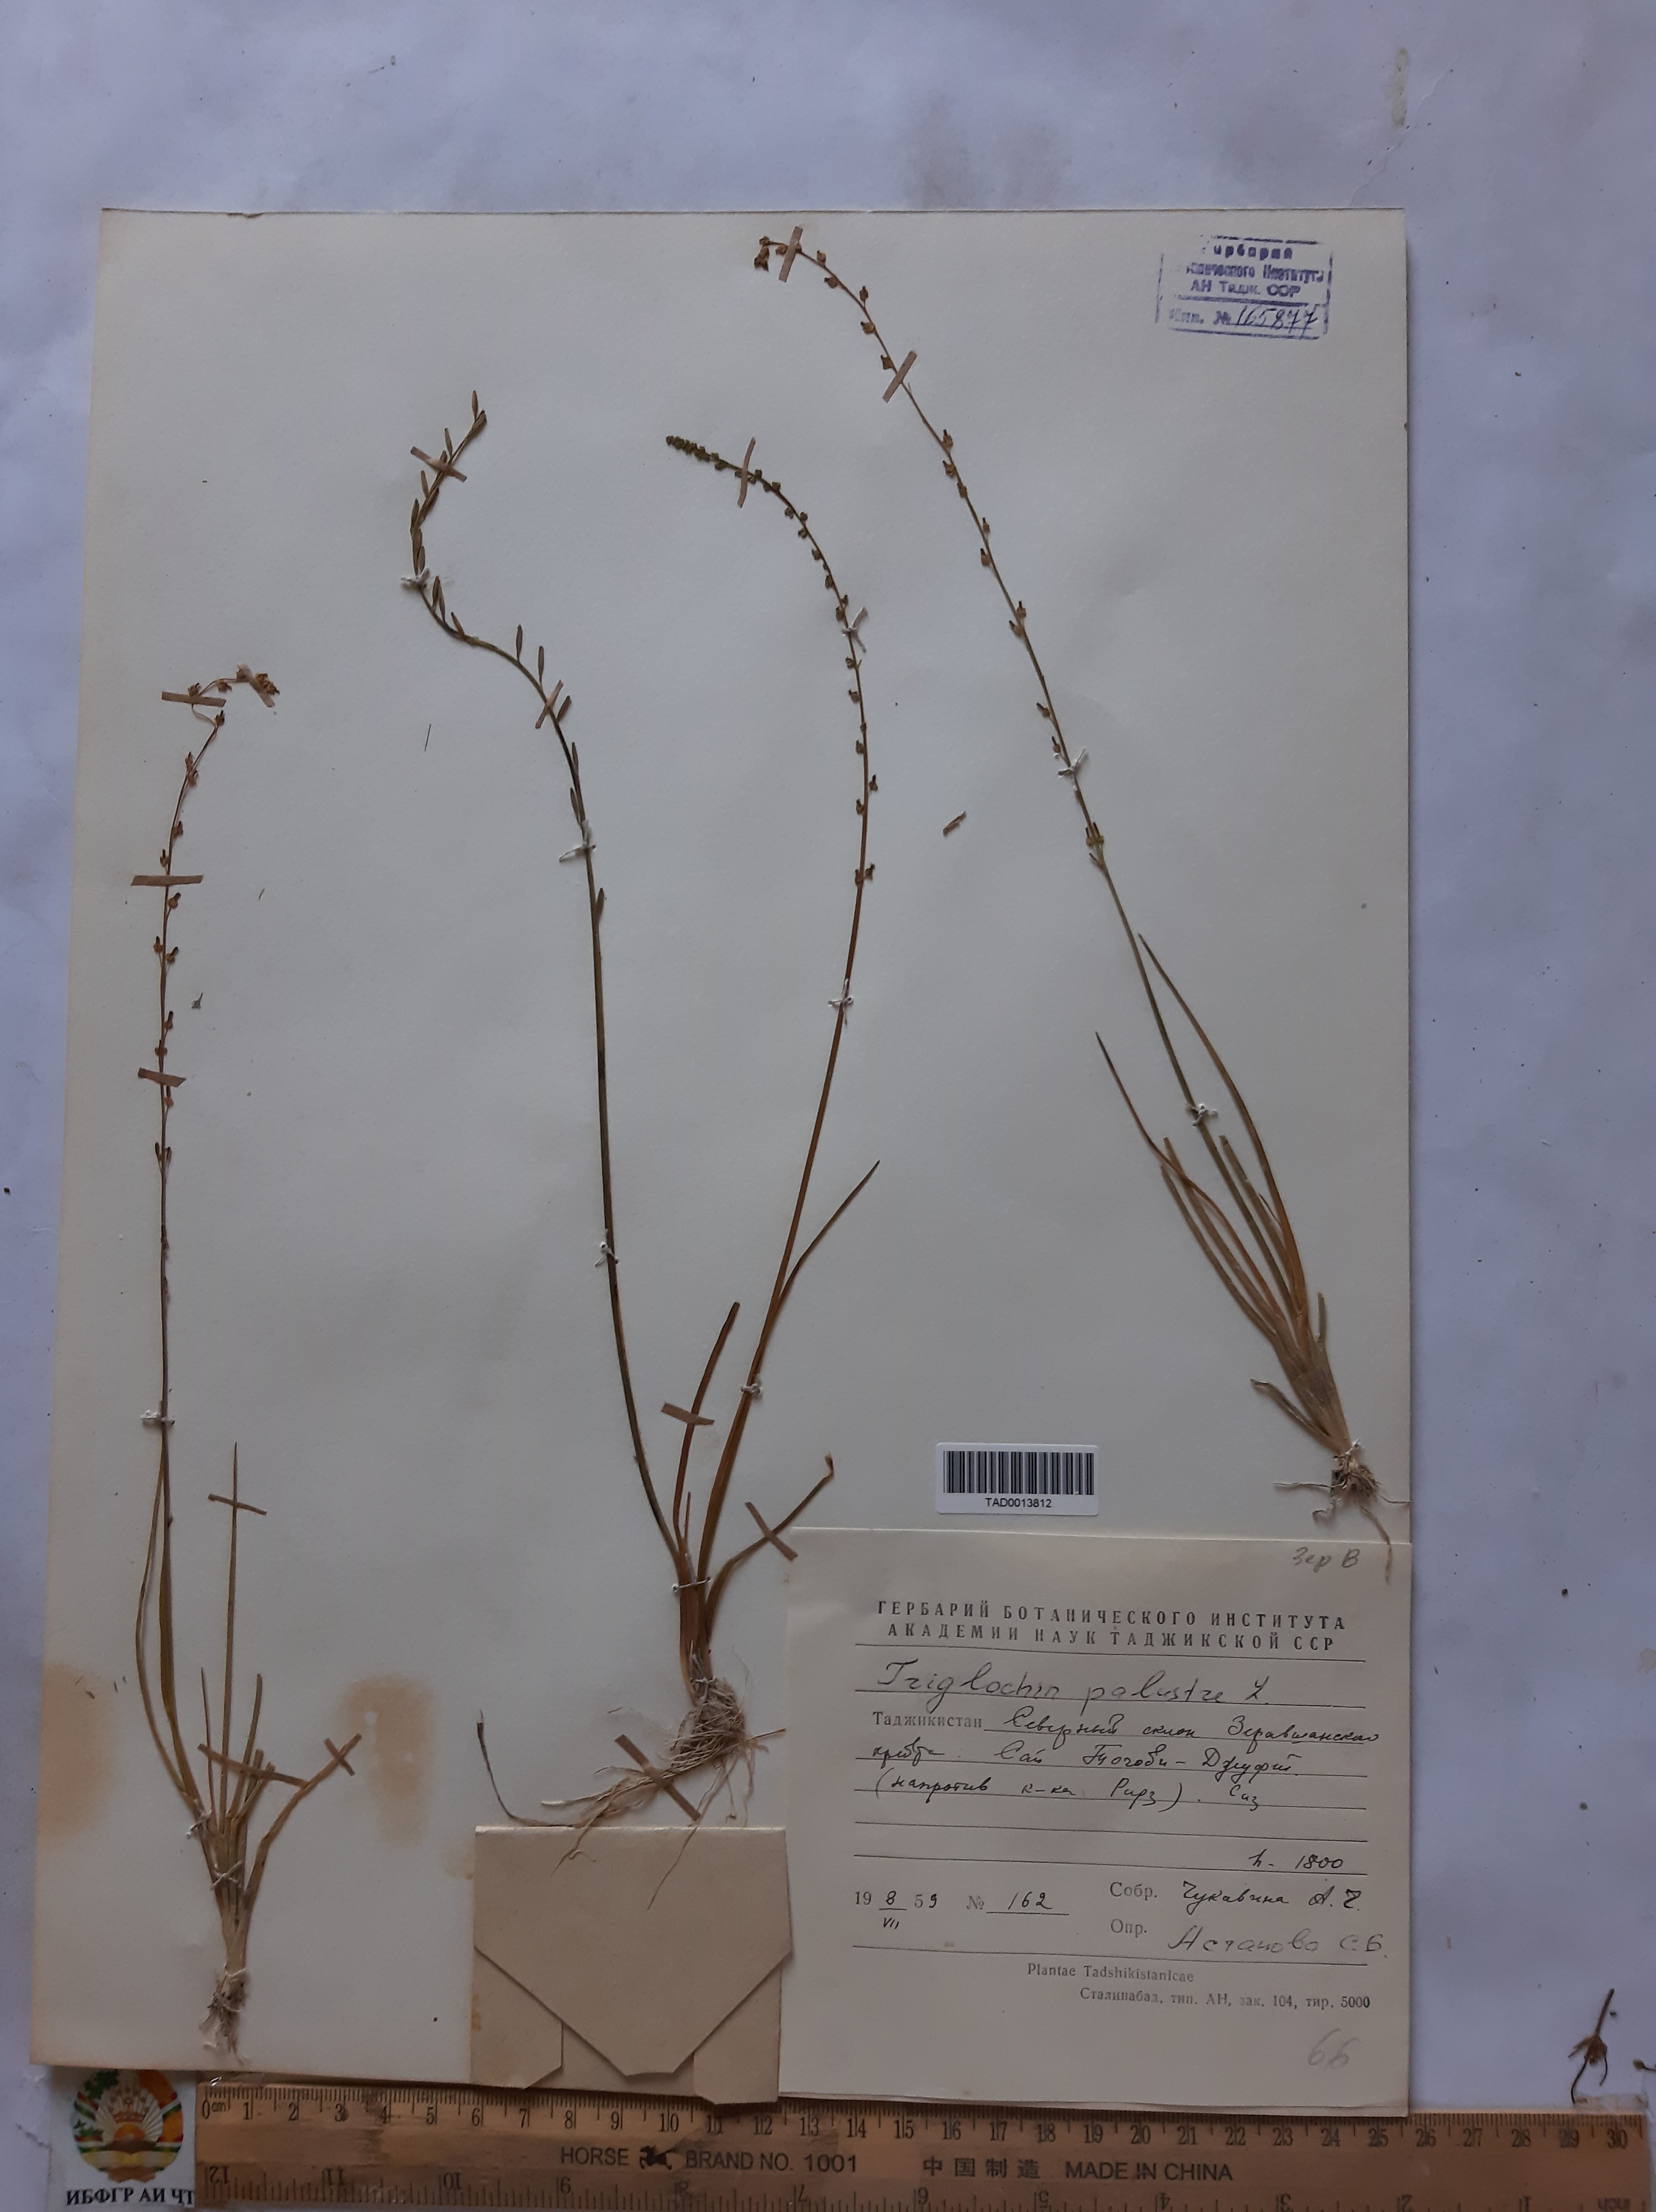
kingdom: Plantae
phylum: Tracheophyta
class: Liliopsida
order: Alismatales
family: Juncaginaceae
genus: Triglochin
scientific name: Triglochin palustris
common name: Marsh arrowgrass
